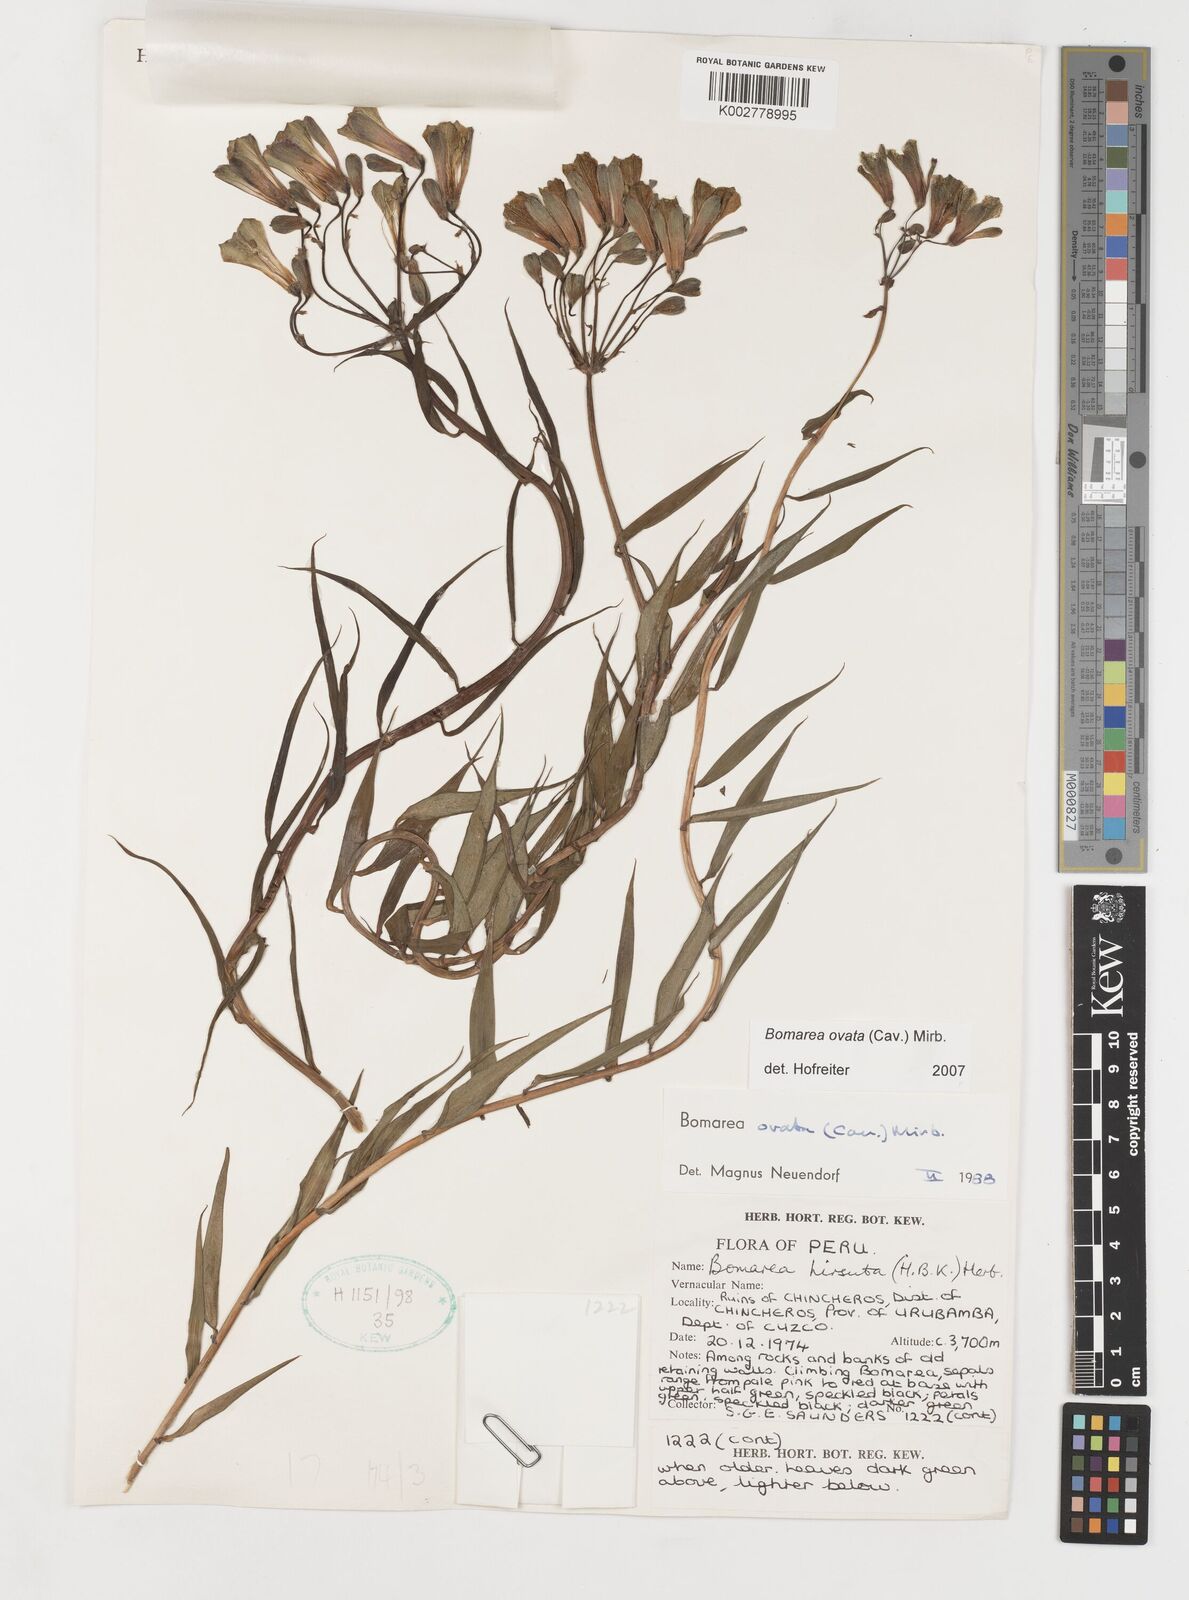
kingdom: Plantae
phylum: Tracheophyta
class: Liliopsida
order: Liliales
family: Alstroemeriaceae
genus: Bomarea
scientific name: Bomarea ovata
